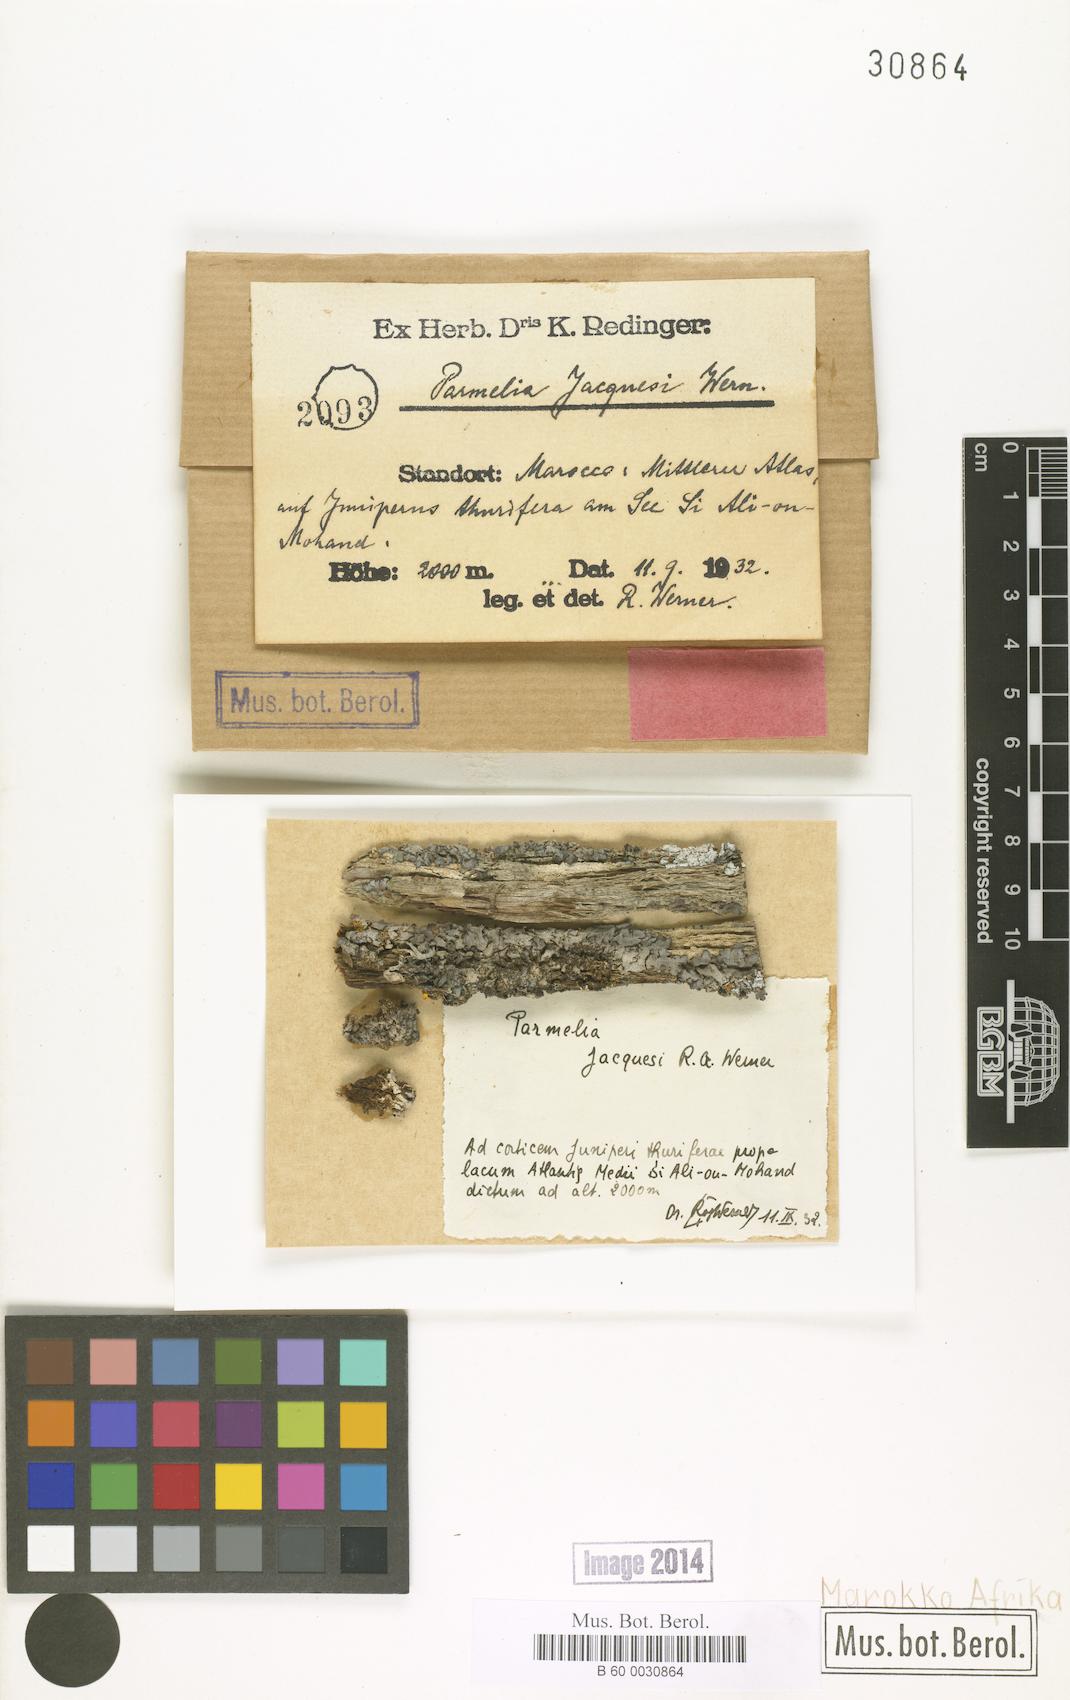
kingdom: Fungi
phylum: Ascomycota
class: Lecanoromycetes
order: Lecanorales
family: Parmeliaceae
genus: Parmelia
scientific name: Parmelia
